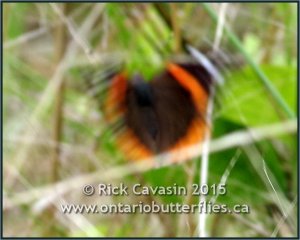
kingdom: Animalia
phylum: Arthropoda
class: Insecta
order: Lepidoptera
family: Nymphalidae
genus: Vanessa
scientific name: Vanessa atalanta
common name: Red Admiral
